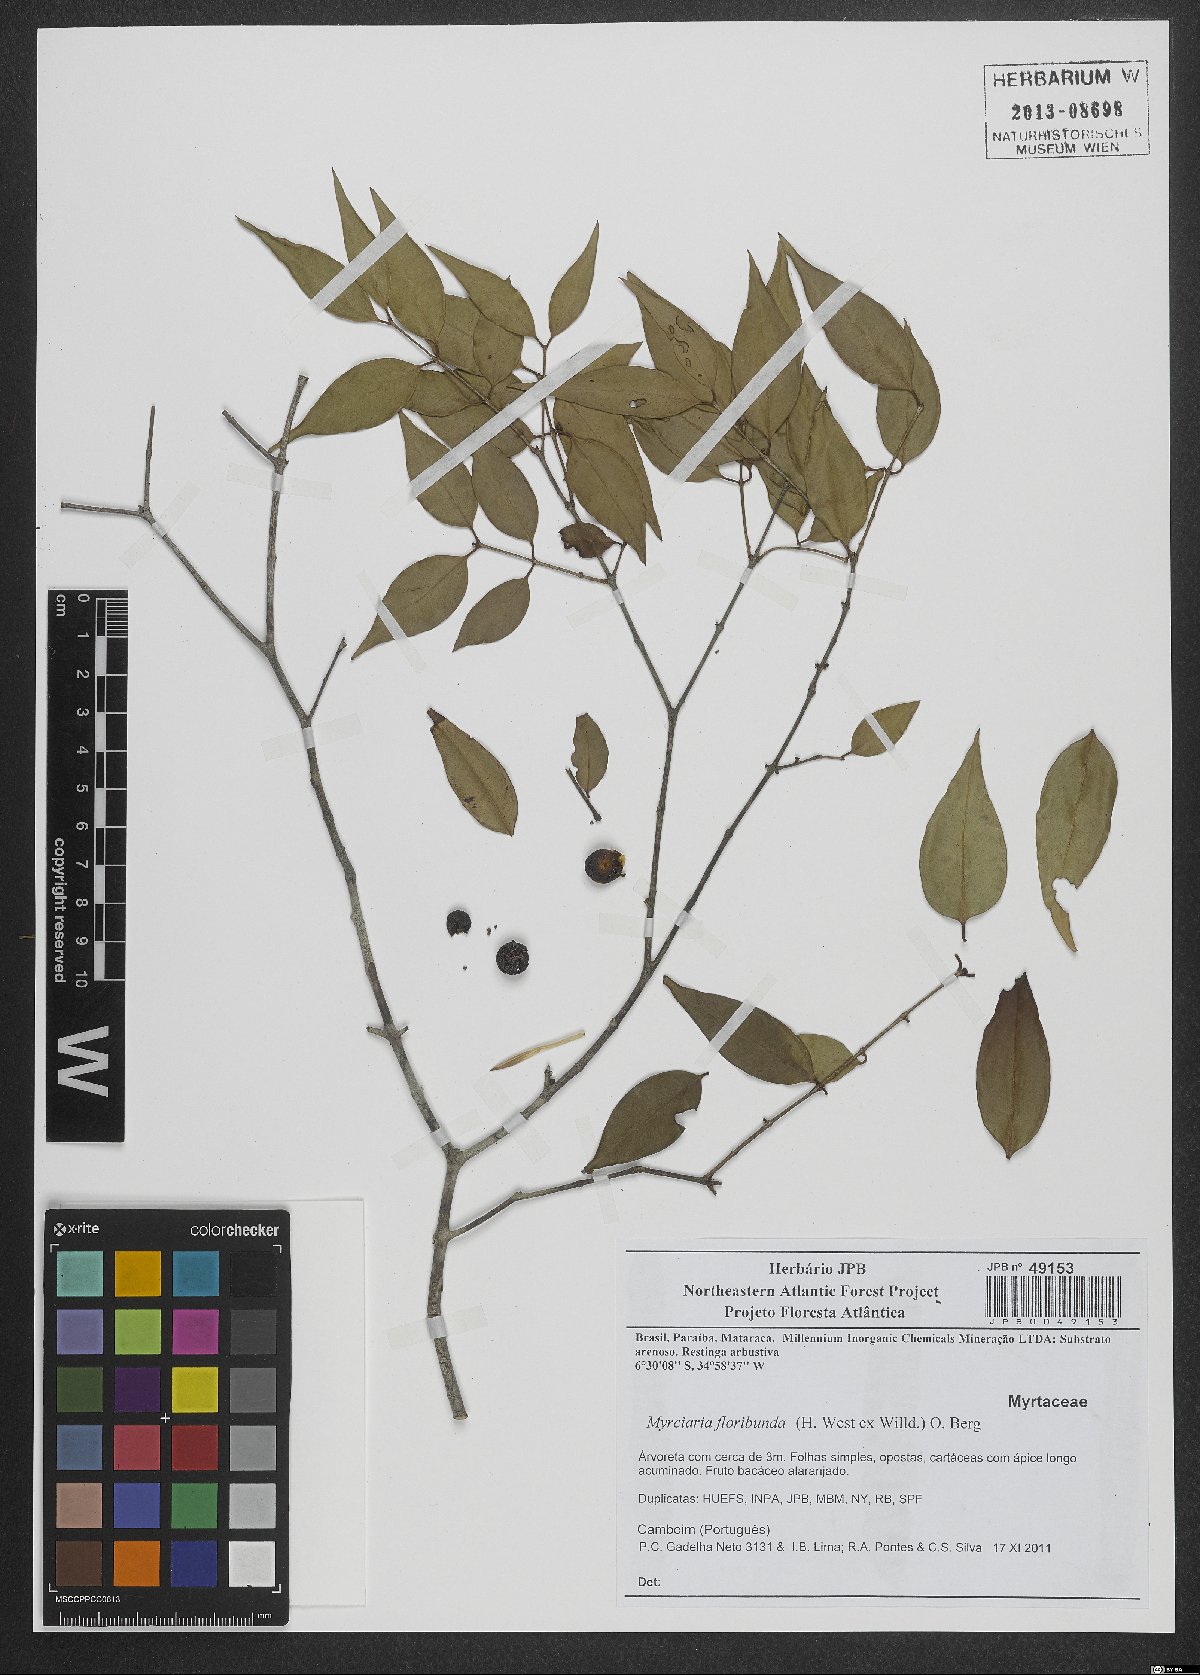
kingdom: Plantae
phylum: Tracheophyta
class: Magnoliopsida
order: Myrtales
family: Myrtaceae
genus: Myrciaria
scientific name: Myrciaria floribunda
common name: Guavaberry
